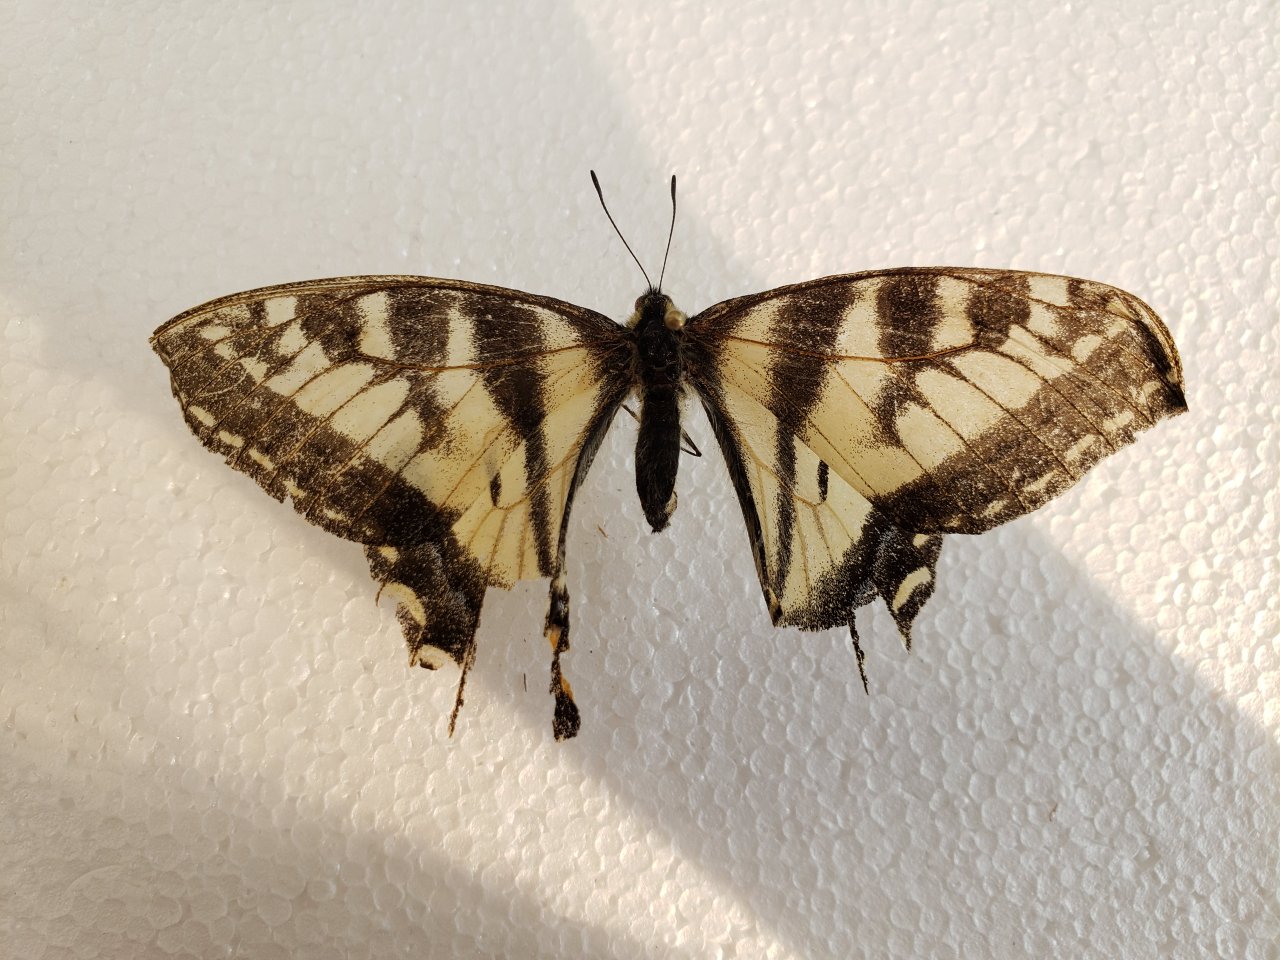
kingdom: Animalia
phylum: Arthropoda
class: Insecta
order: Lepidoptera
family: Papilionidae
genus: Pterourus
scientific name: Pterourus canadensis
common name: Canadian Tiger Swallowtail
